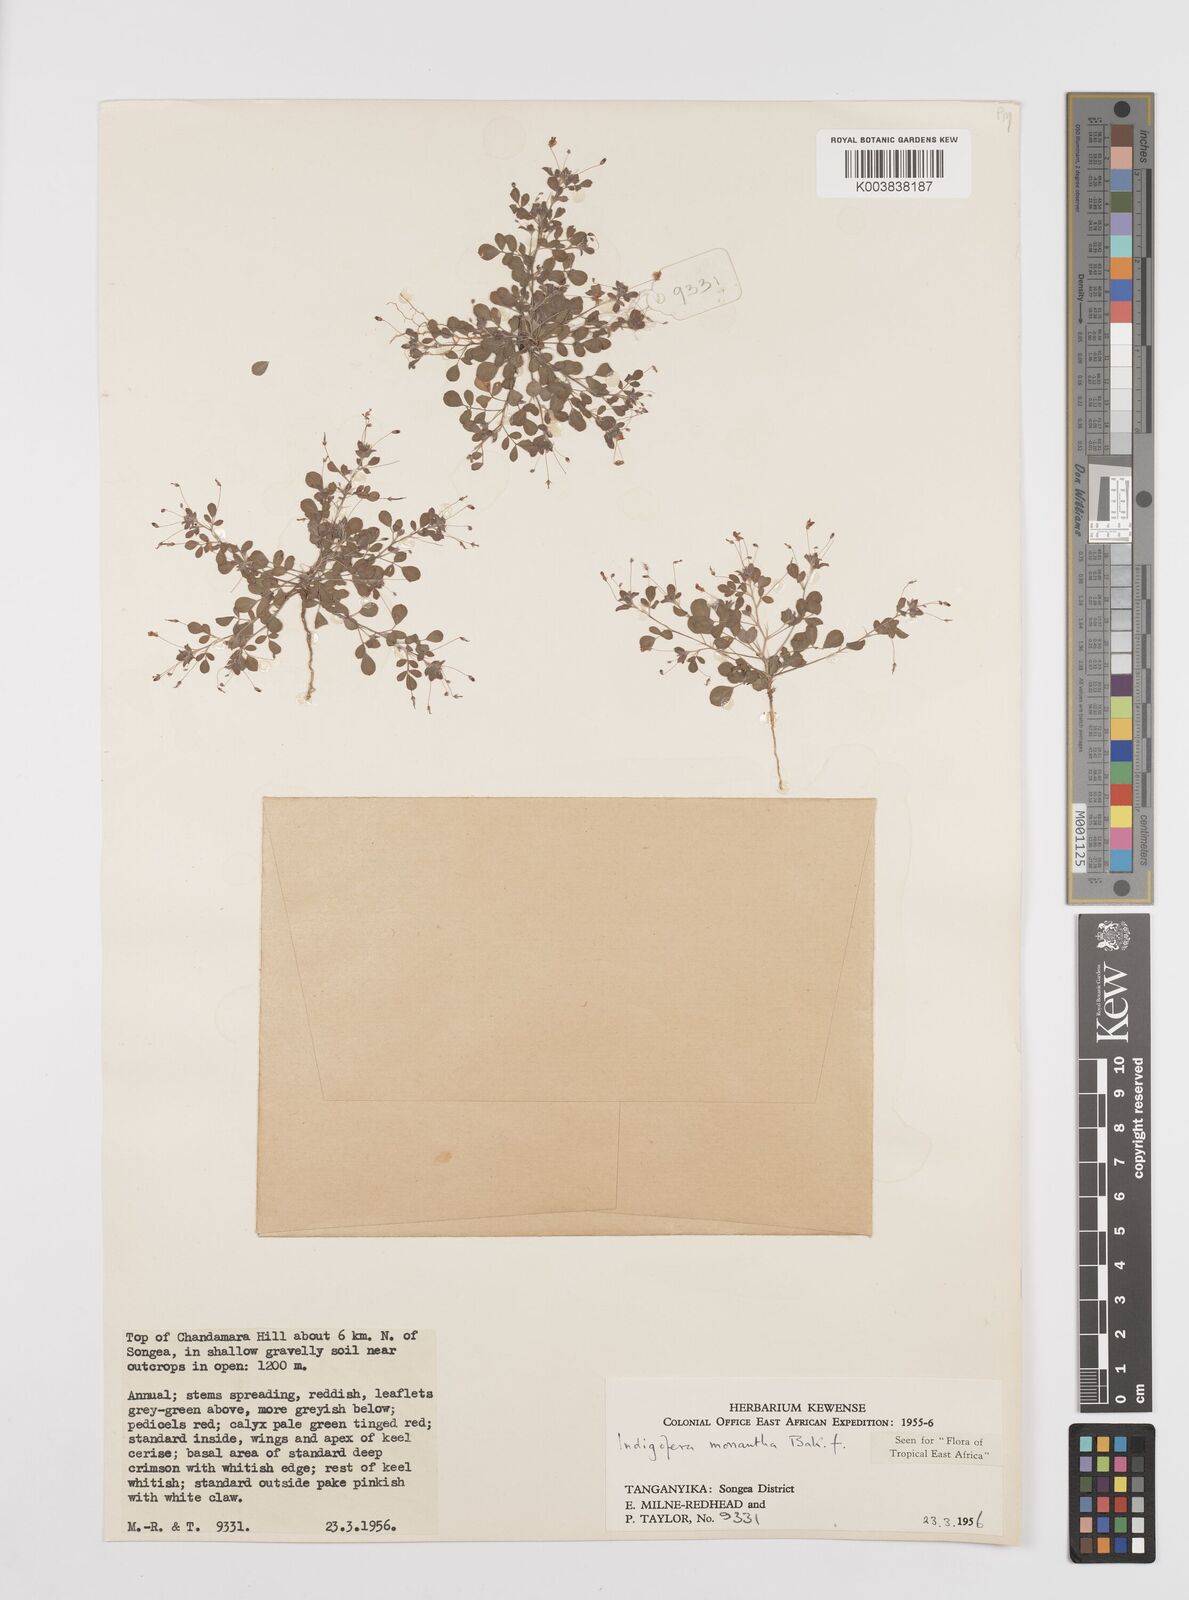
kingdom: Plantae
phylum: Tracheophyta
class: Magnoliopsida
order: Fabales
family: Fabaceae
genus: Indigofera
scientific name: Indigofera monantha
